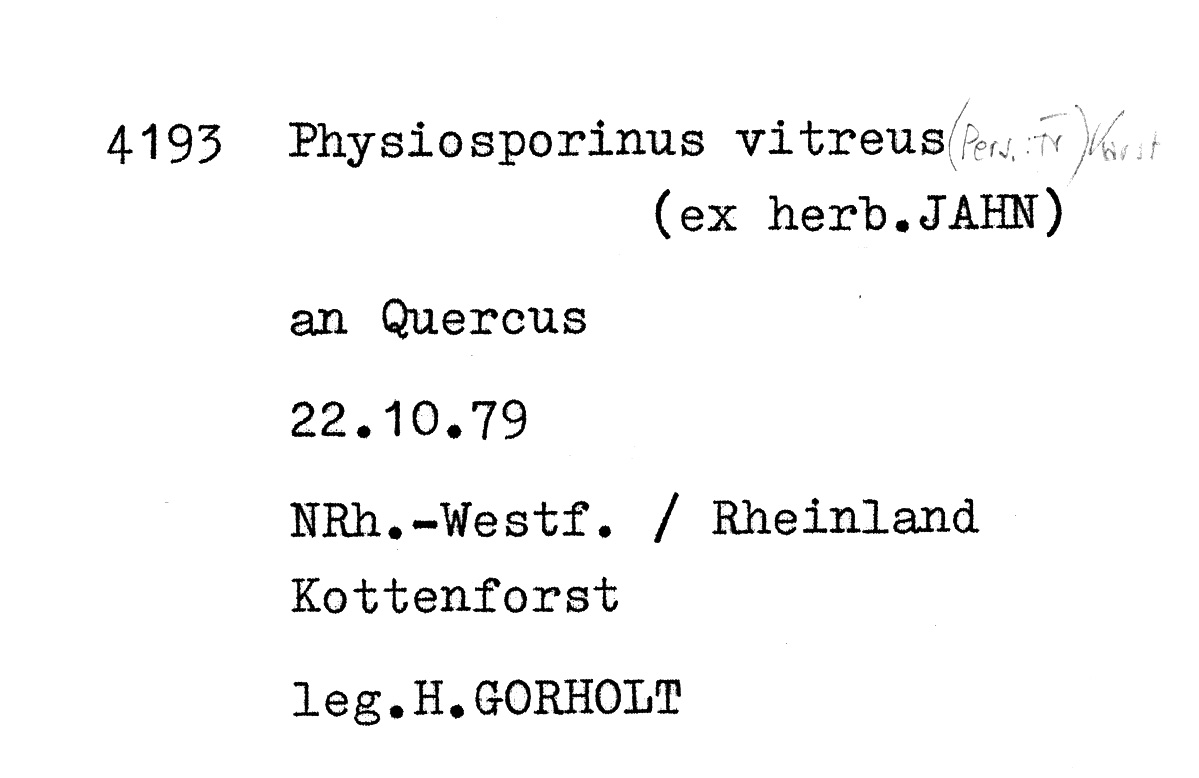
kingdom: Fungi
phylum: Basidiomycota
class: Agaricomycetes
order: Polyporales
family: Meruliaceae
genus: Physisporinus
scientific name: Physisporinus vitreus
